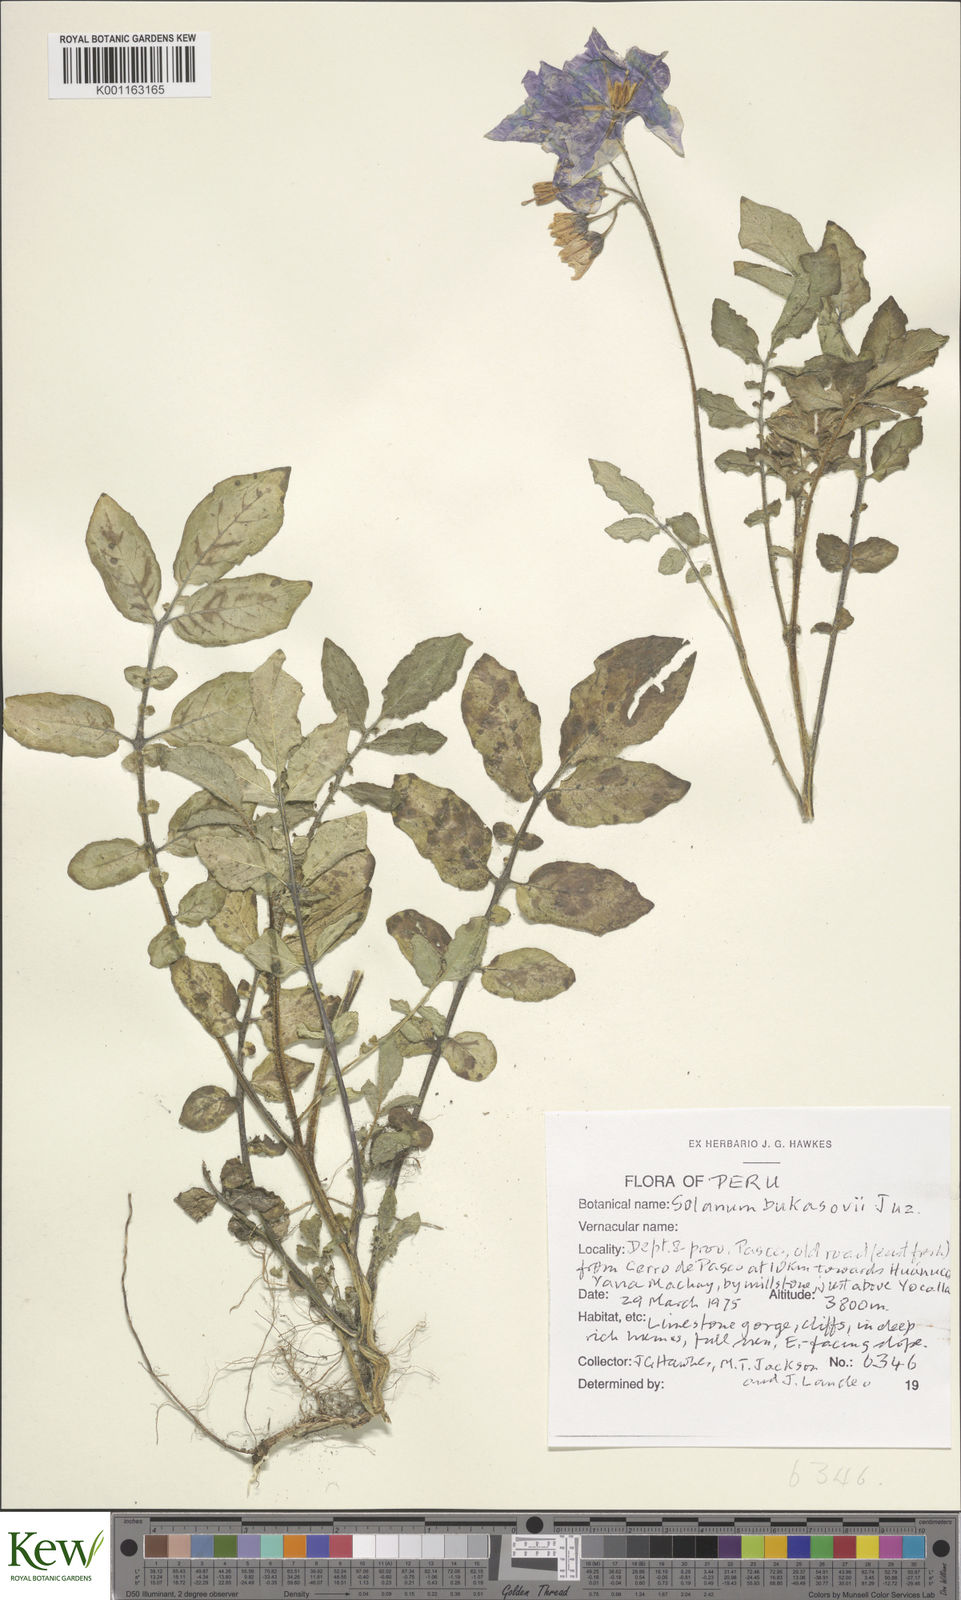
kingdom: Plantae
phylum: Tracheophyta
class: Magnoliopsida
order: Solanales
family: Solanaceae
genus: Solanum
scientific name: Solanum candolleanum
